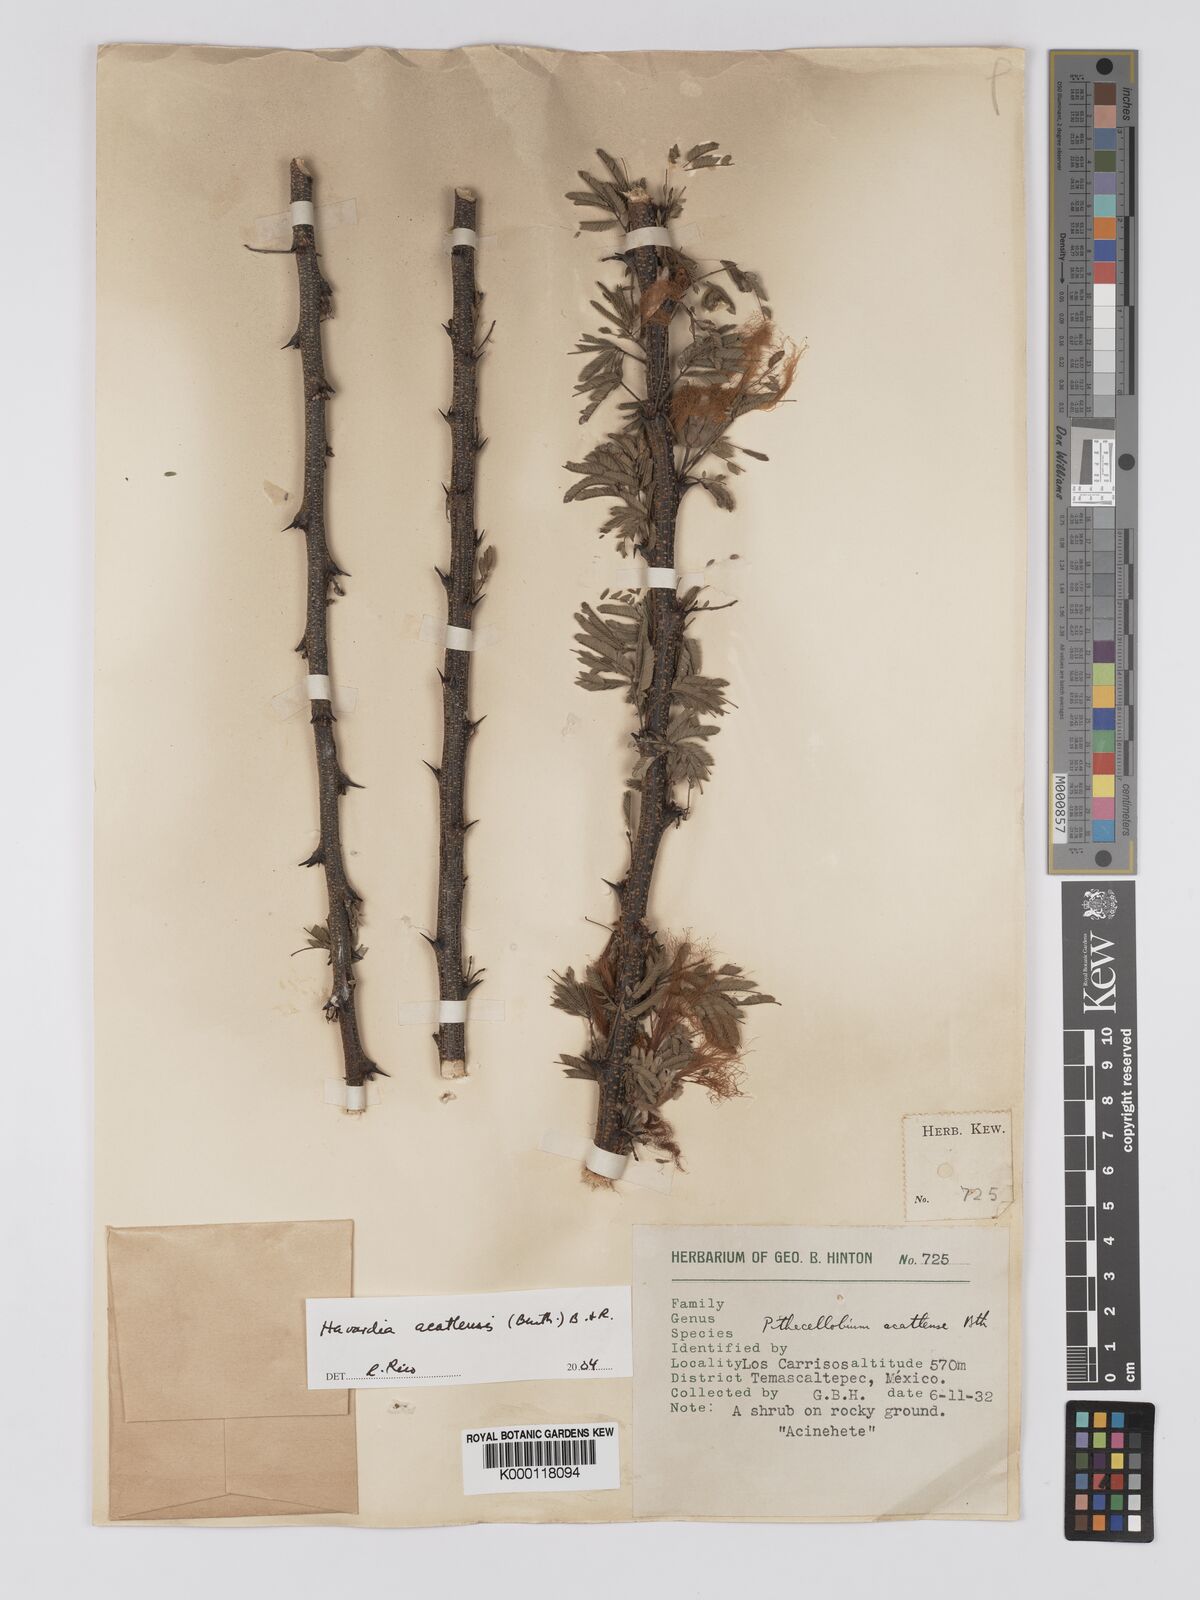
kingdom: Plantae
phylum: Tracheophyta
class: Magnoliopsida
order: Fabales
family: Fabaceae
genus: Havardia
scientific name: Havardia acatlensis
